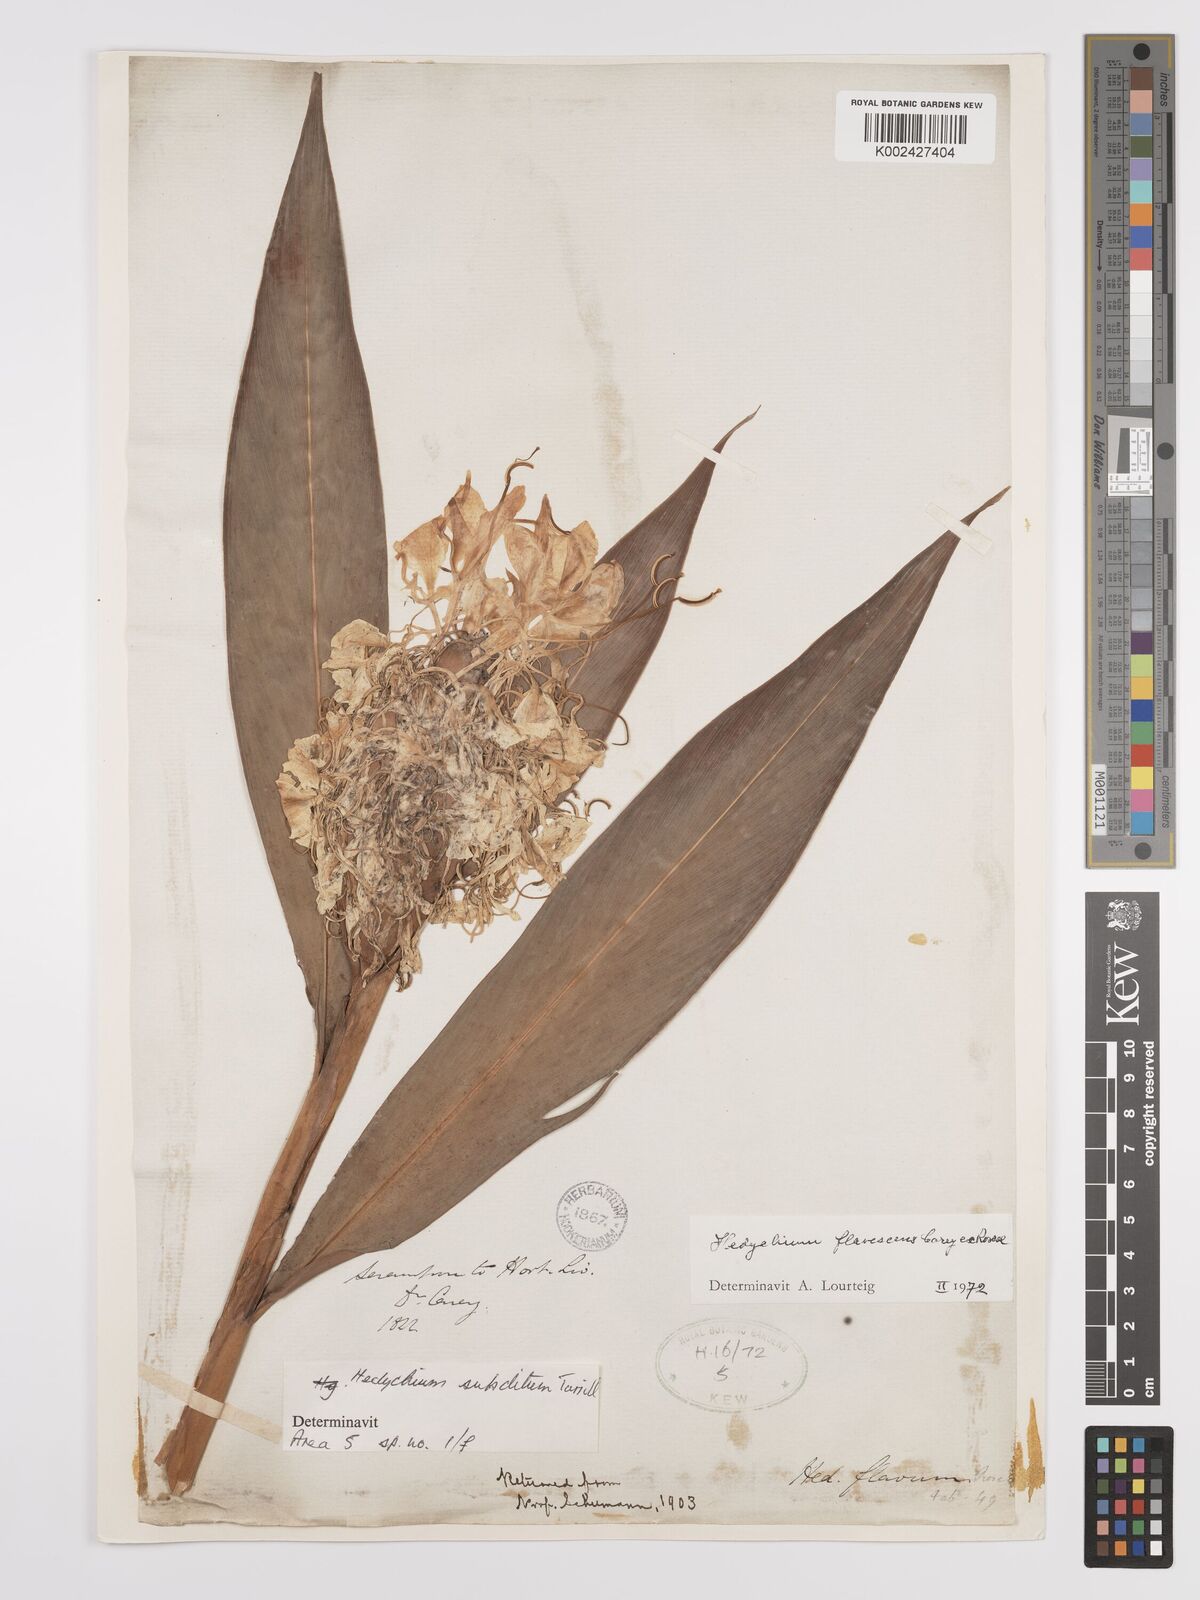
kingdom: Plantae
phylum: Tracheophyta
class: Liliopsida
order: Zingiberales
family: Zingiberaceae
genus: Hedychium
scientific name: Hedychium flavescens
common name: Yellow ginger
